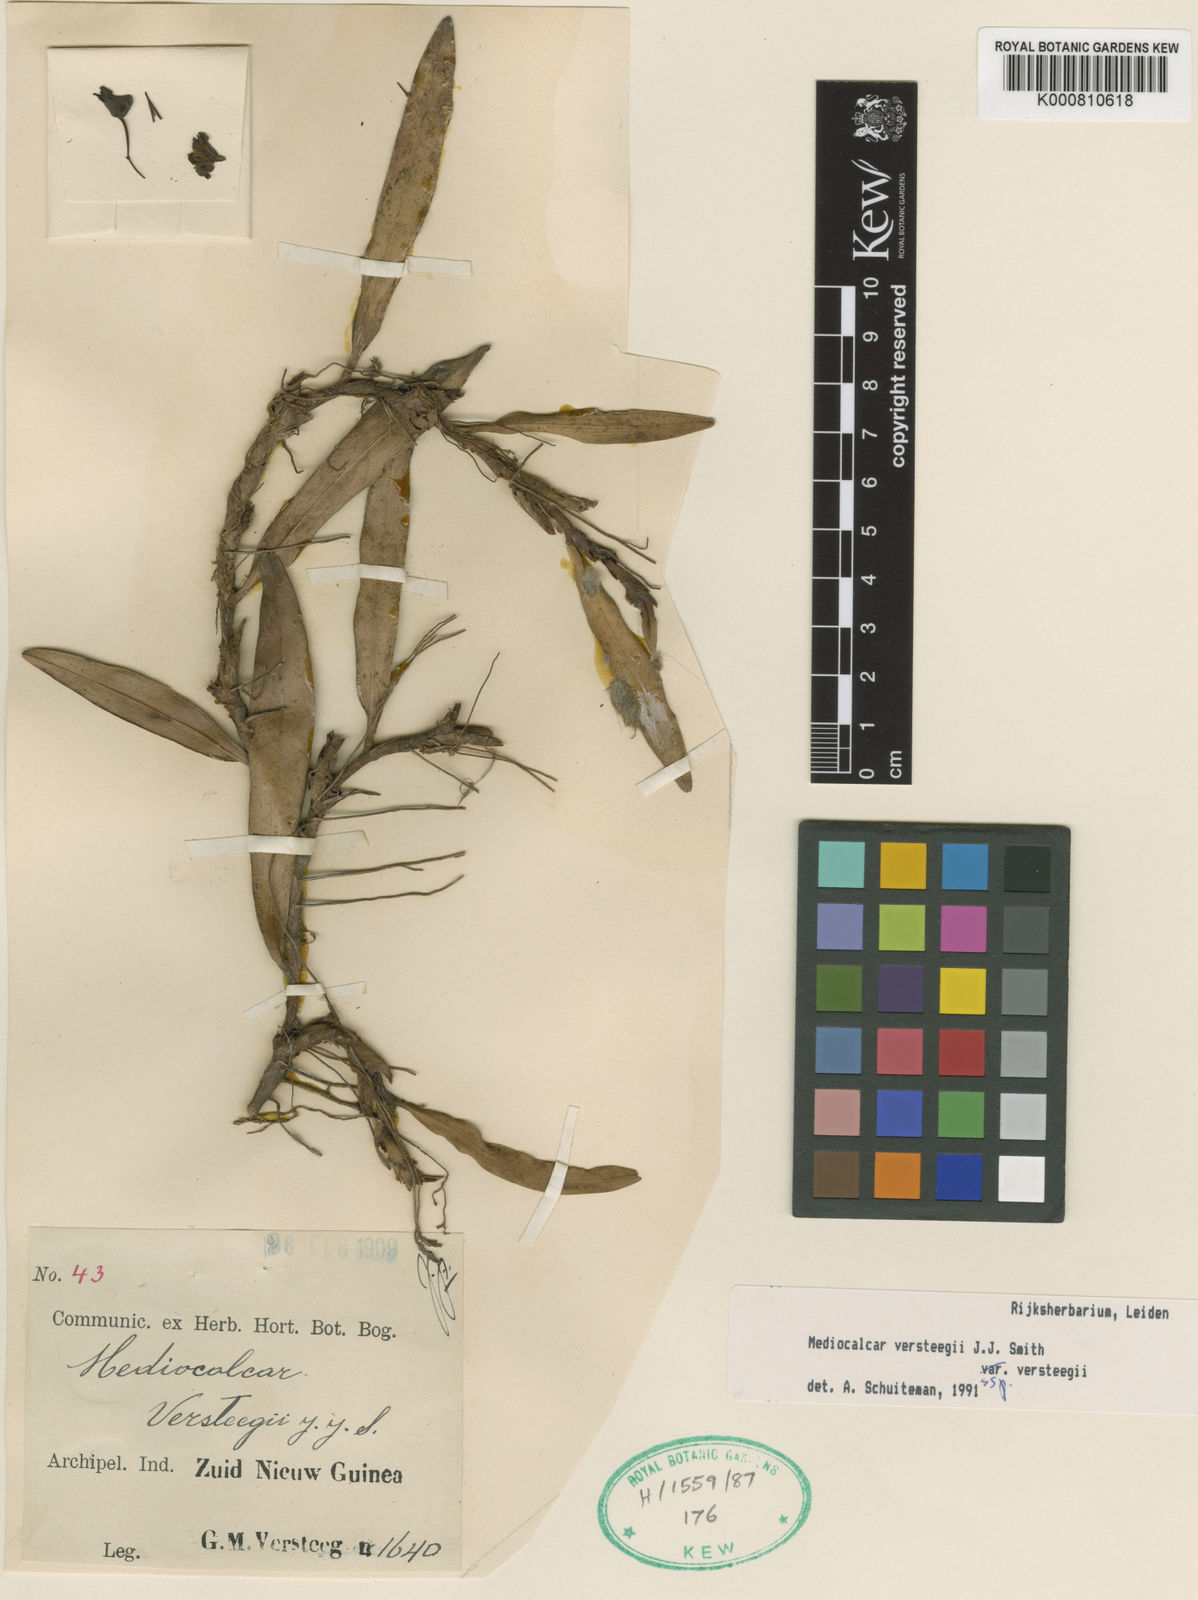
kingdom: Plantae
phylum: Tracheophyta
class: Liliopsida
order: Asparagales
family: Orchidaceae
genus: Mediocalcar
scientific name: Mediocalcar versteegii
